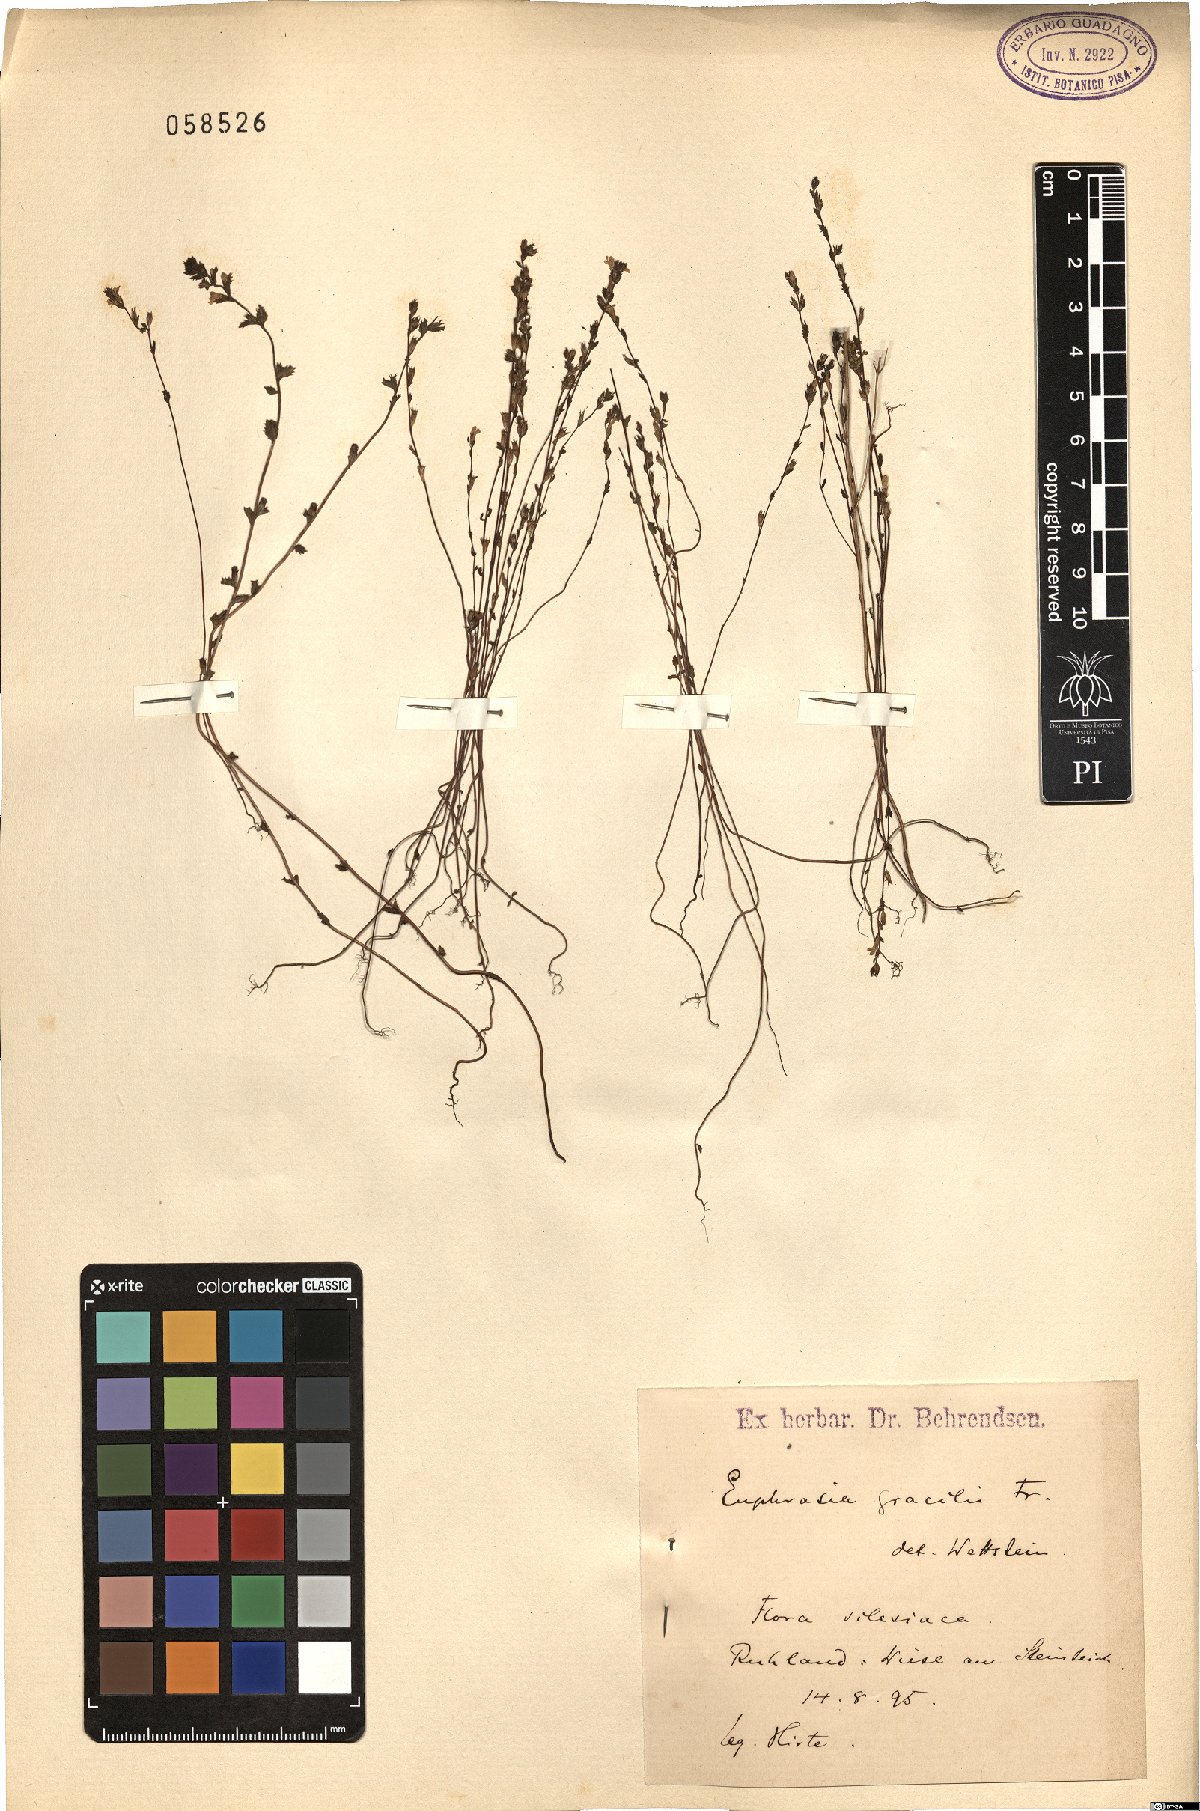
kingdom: Plantae
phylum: Tracheophyta
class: Magnoliopsida
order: Lamiales
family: Orobanchaceae
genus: Euphrasia
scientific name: Euphrasia micrantha
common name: Northern eyebright
